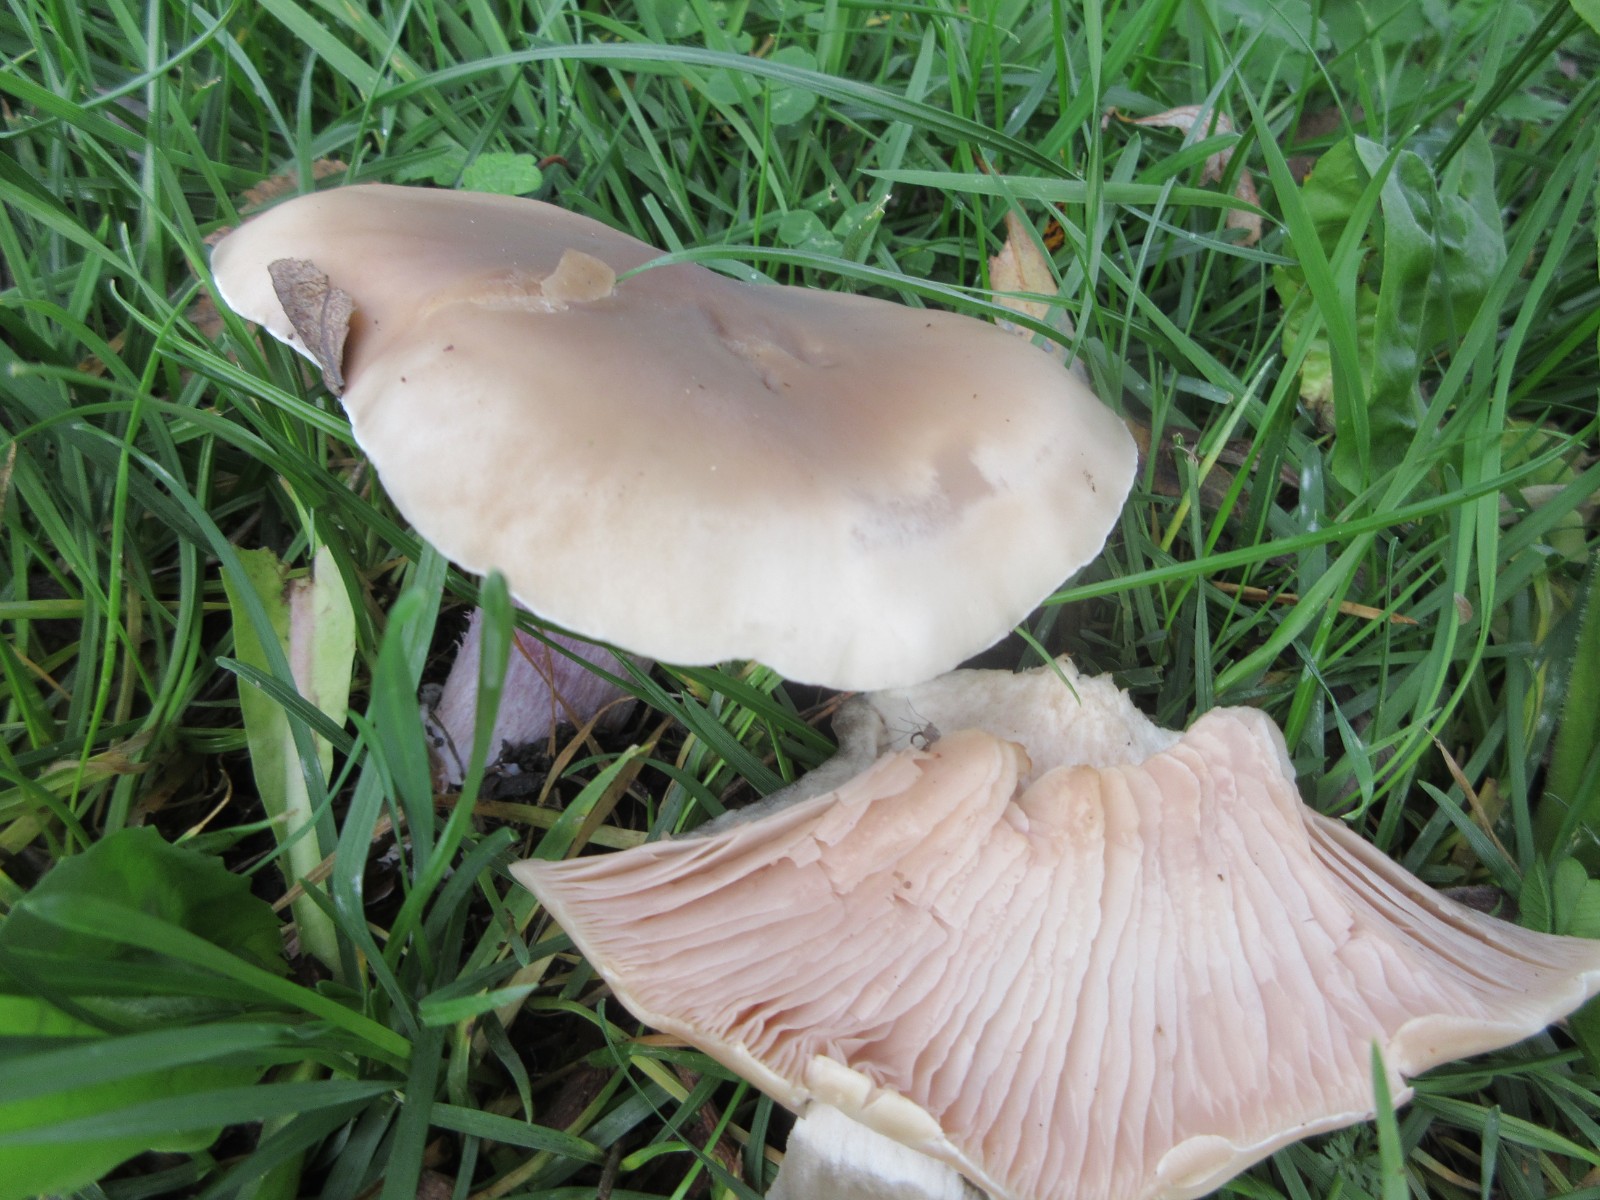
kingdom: Fungi
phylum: Basidiomycota
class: Agaricomycetes
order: Agaricales
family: Tricholomataceae
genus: Lepista
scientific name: Lepista personata
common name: bleg hekseringshat
